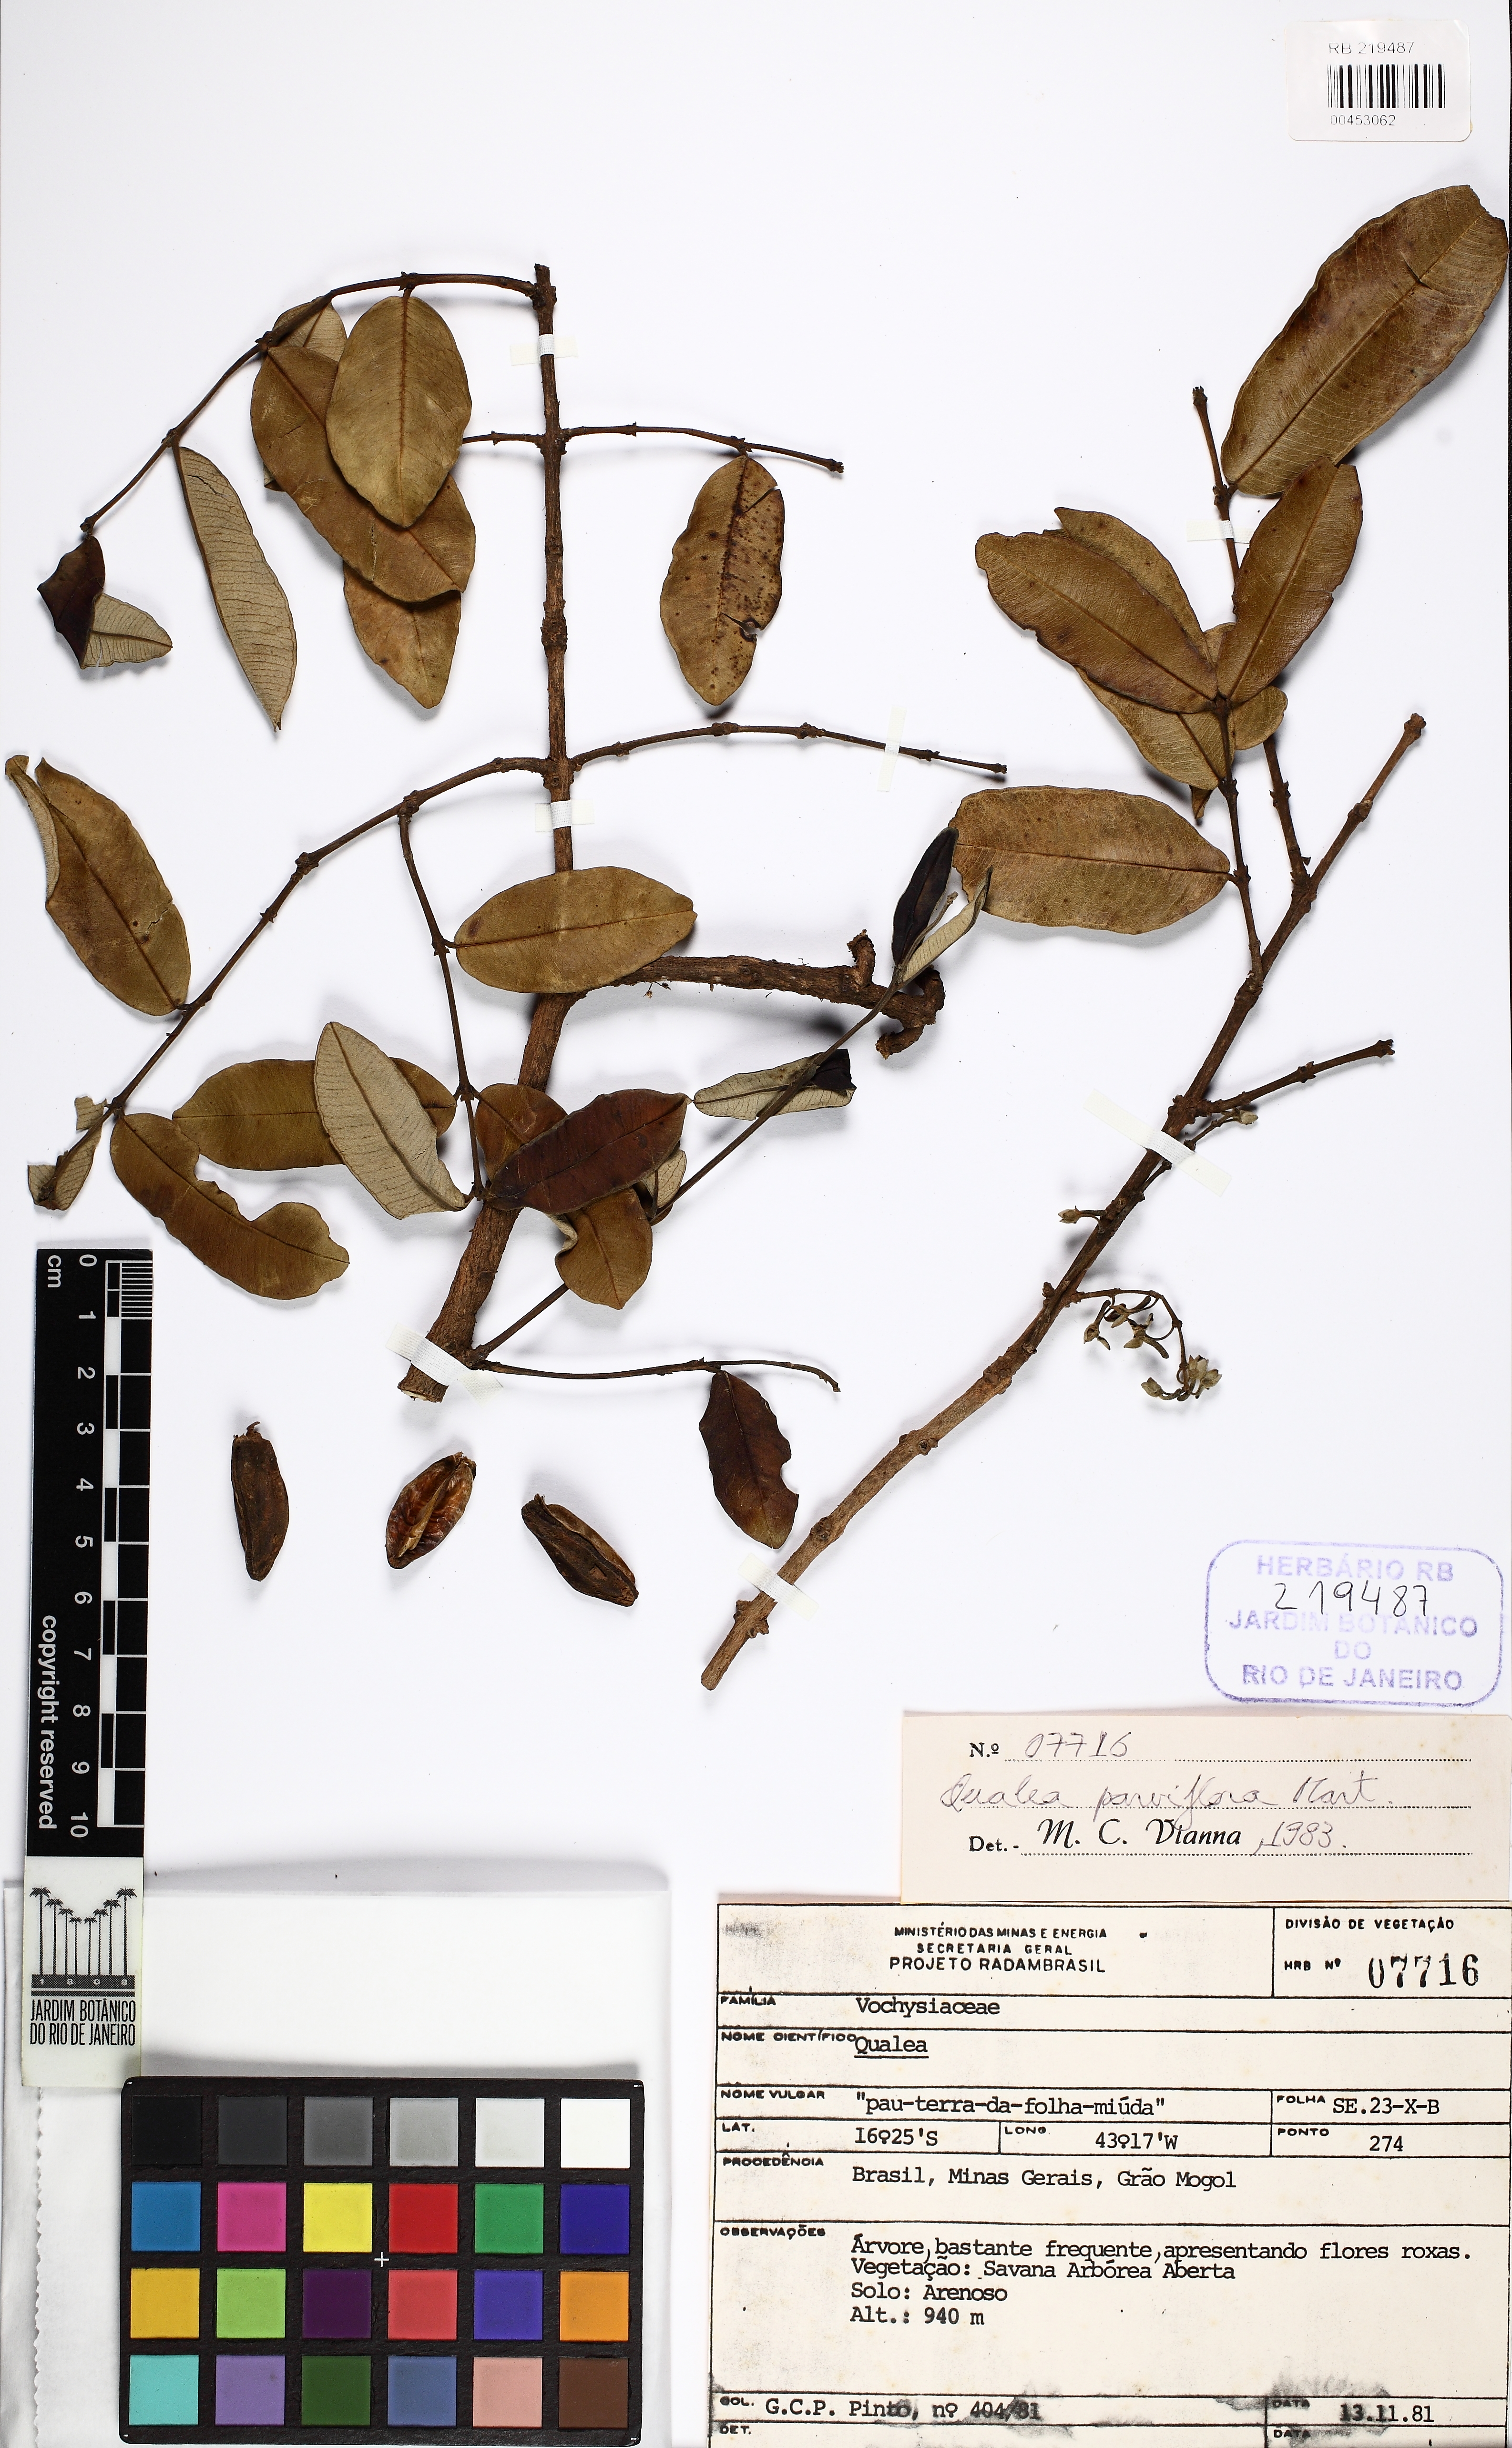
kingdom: Plantae
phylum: Tracheophyta
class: Magnoliopsida
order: Myrtales
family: Vochysiaceae
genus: Qualea
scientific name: Qualea parviflora
